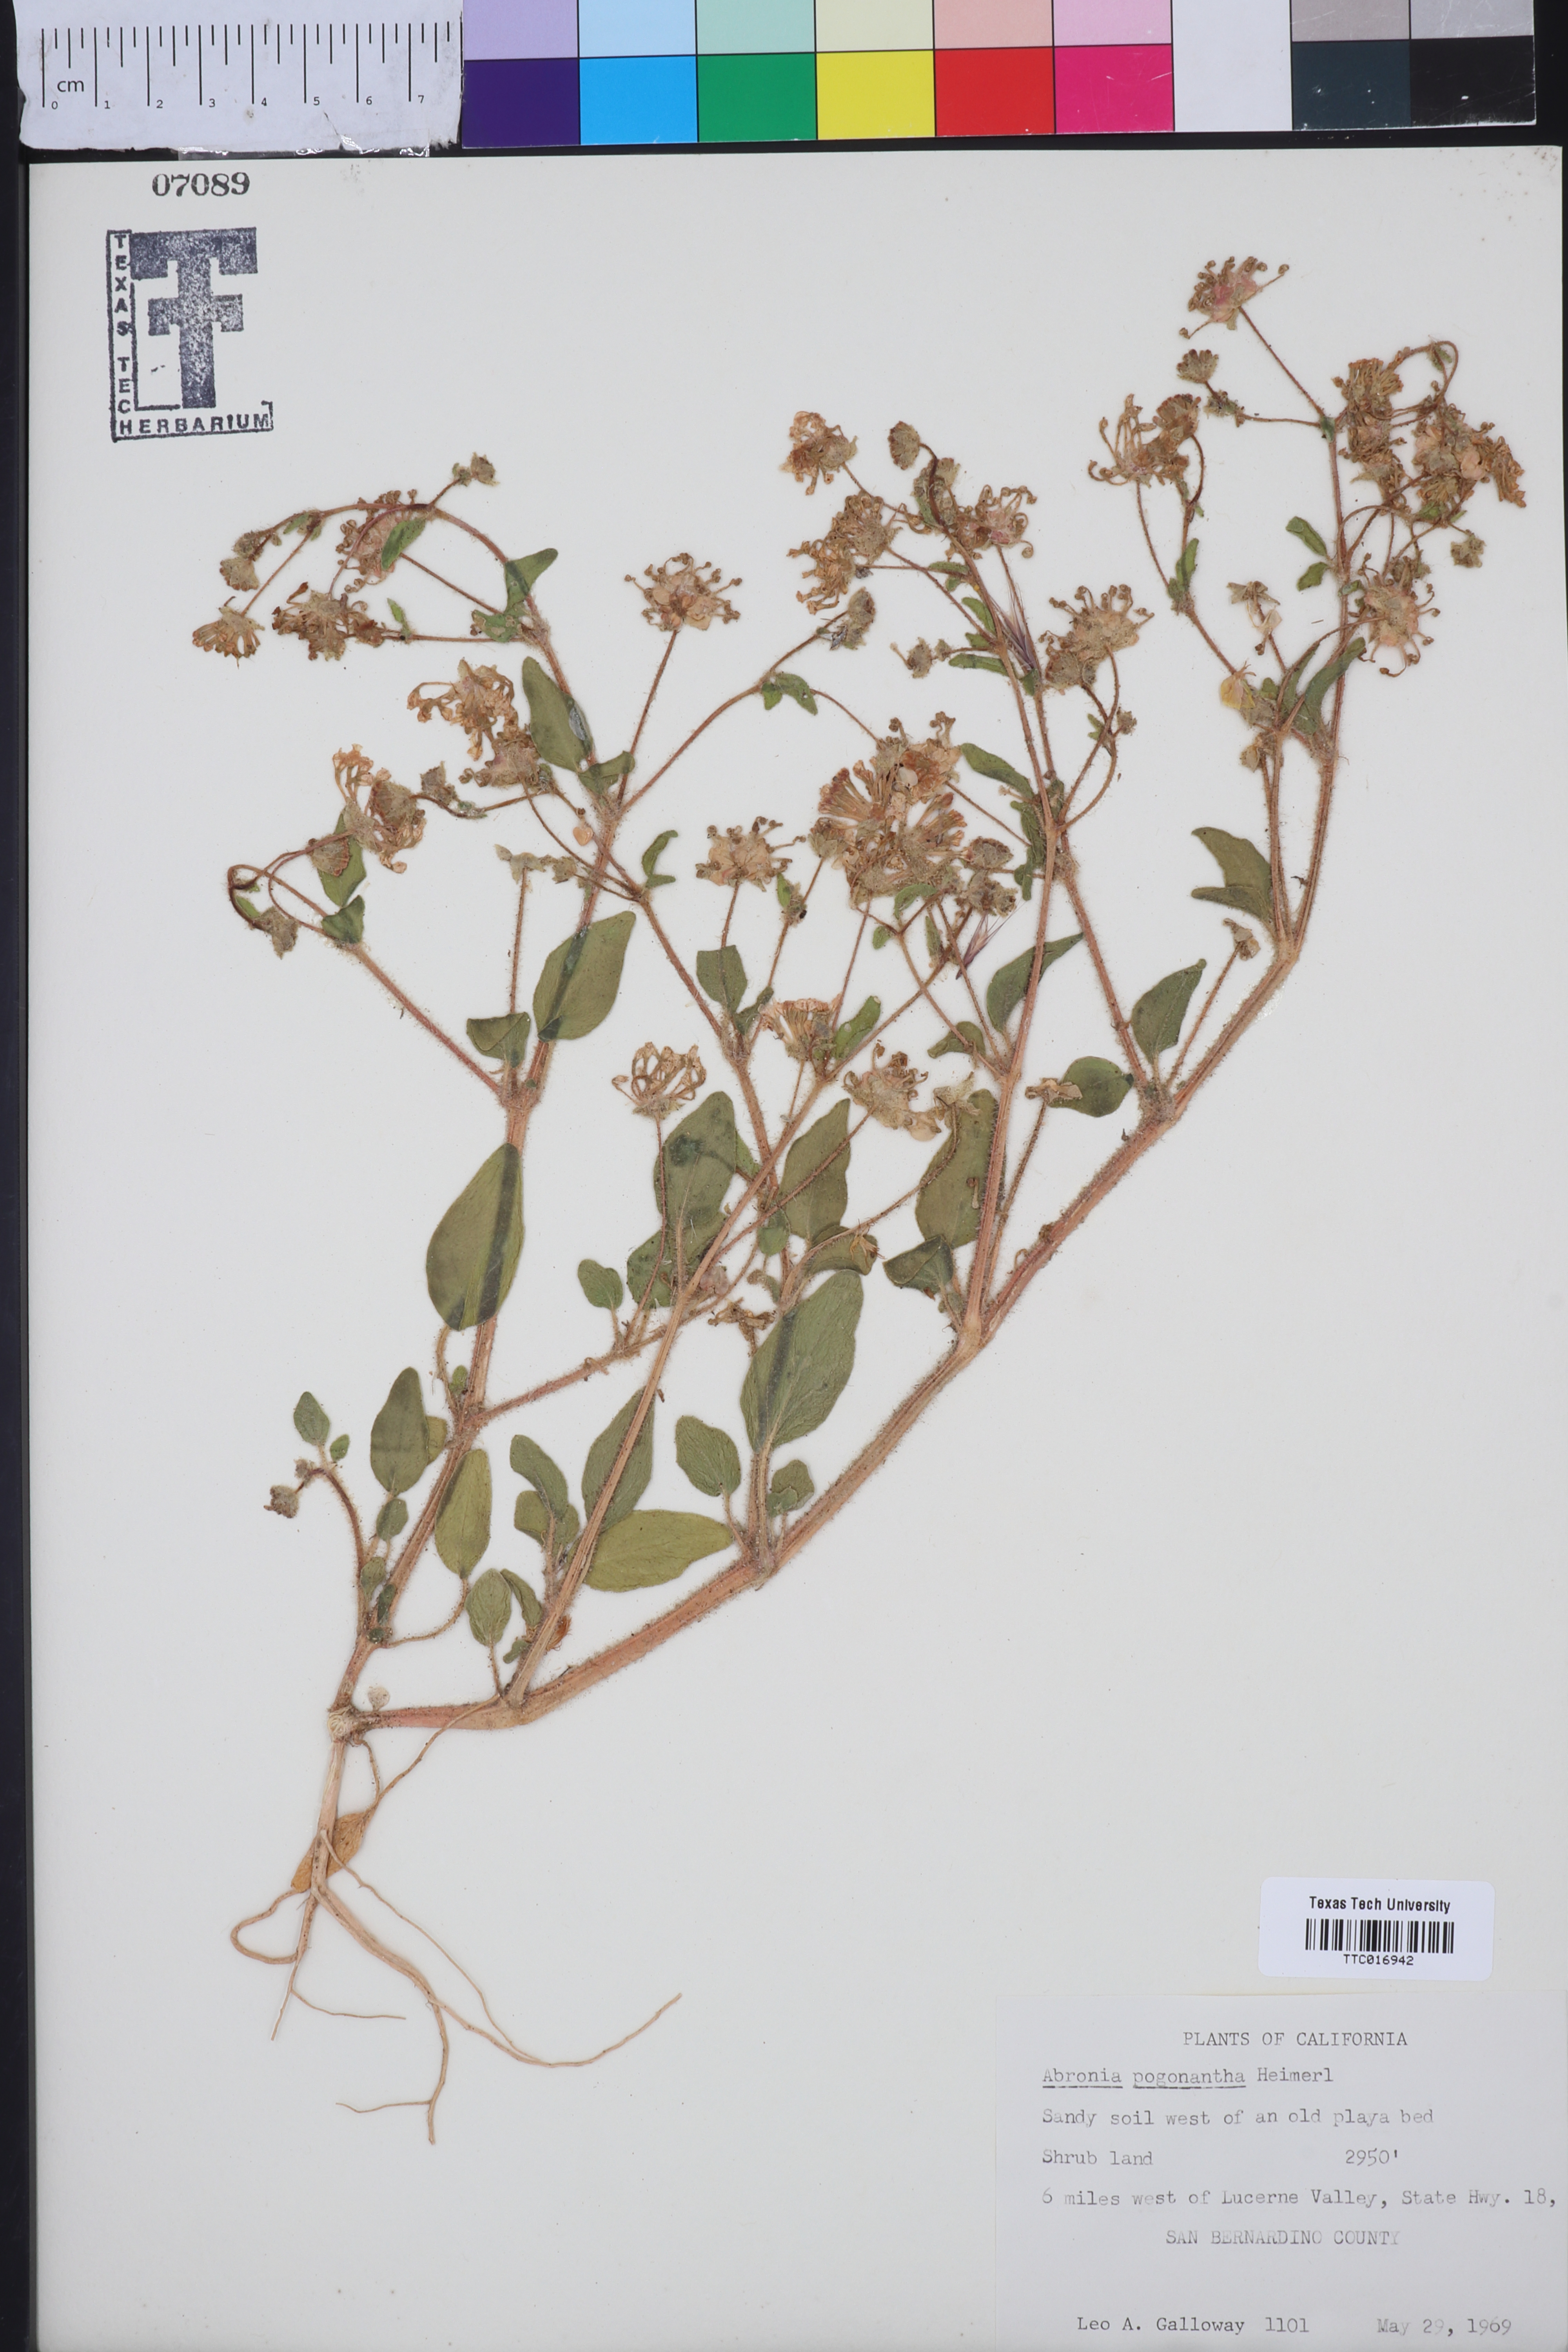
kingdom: Plantae
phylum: Tracheophyta
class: Magnoliopsida
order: Caryophyllales
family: Nyctaginaceae
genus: Abronia
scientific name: Abronia pogonantha
